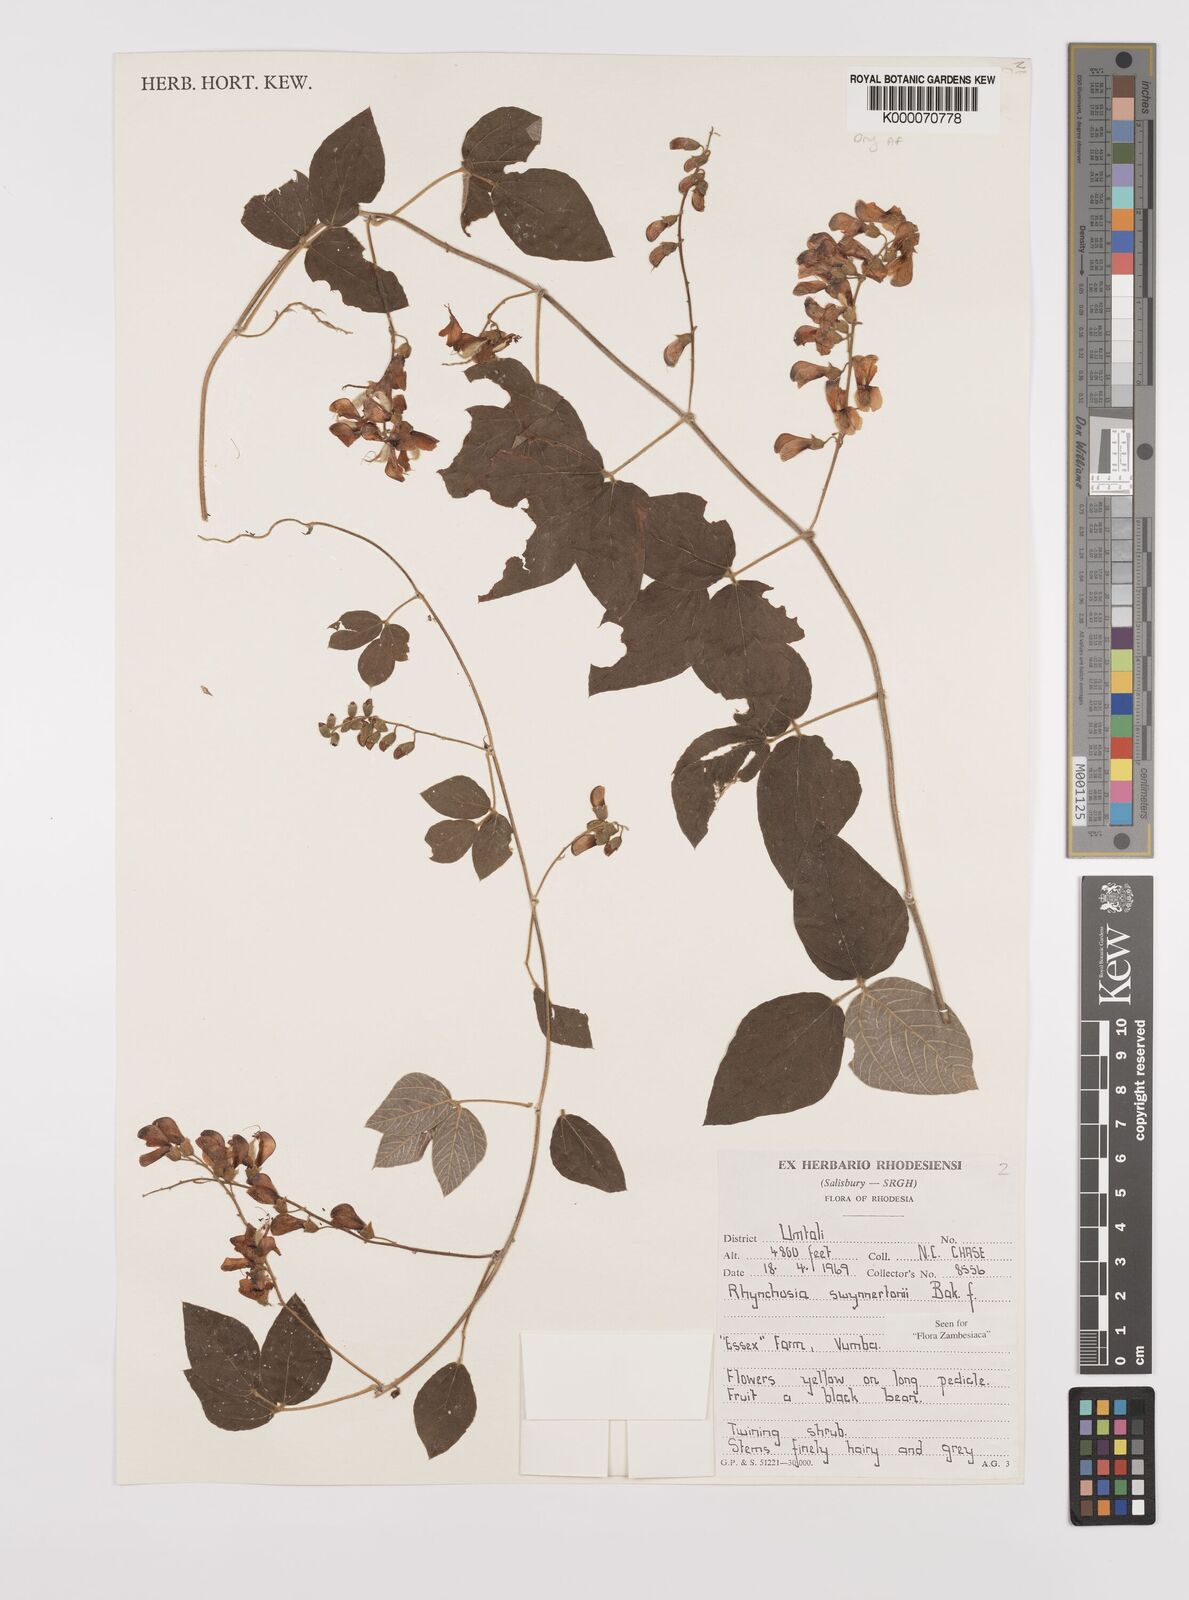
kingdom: Plantae
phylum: Tracheophyta
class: Magnoliopsida
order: Fabales
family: Fabaceae
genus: Rhynchosia
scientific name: Rhynchosia swynnertonii
